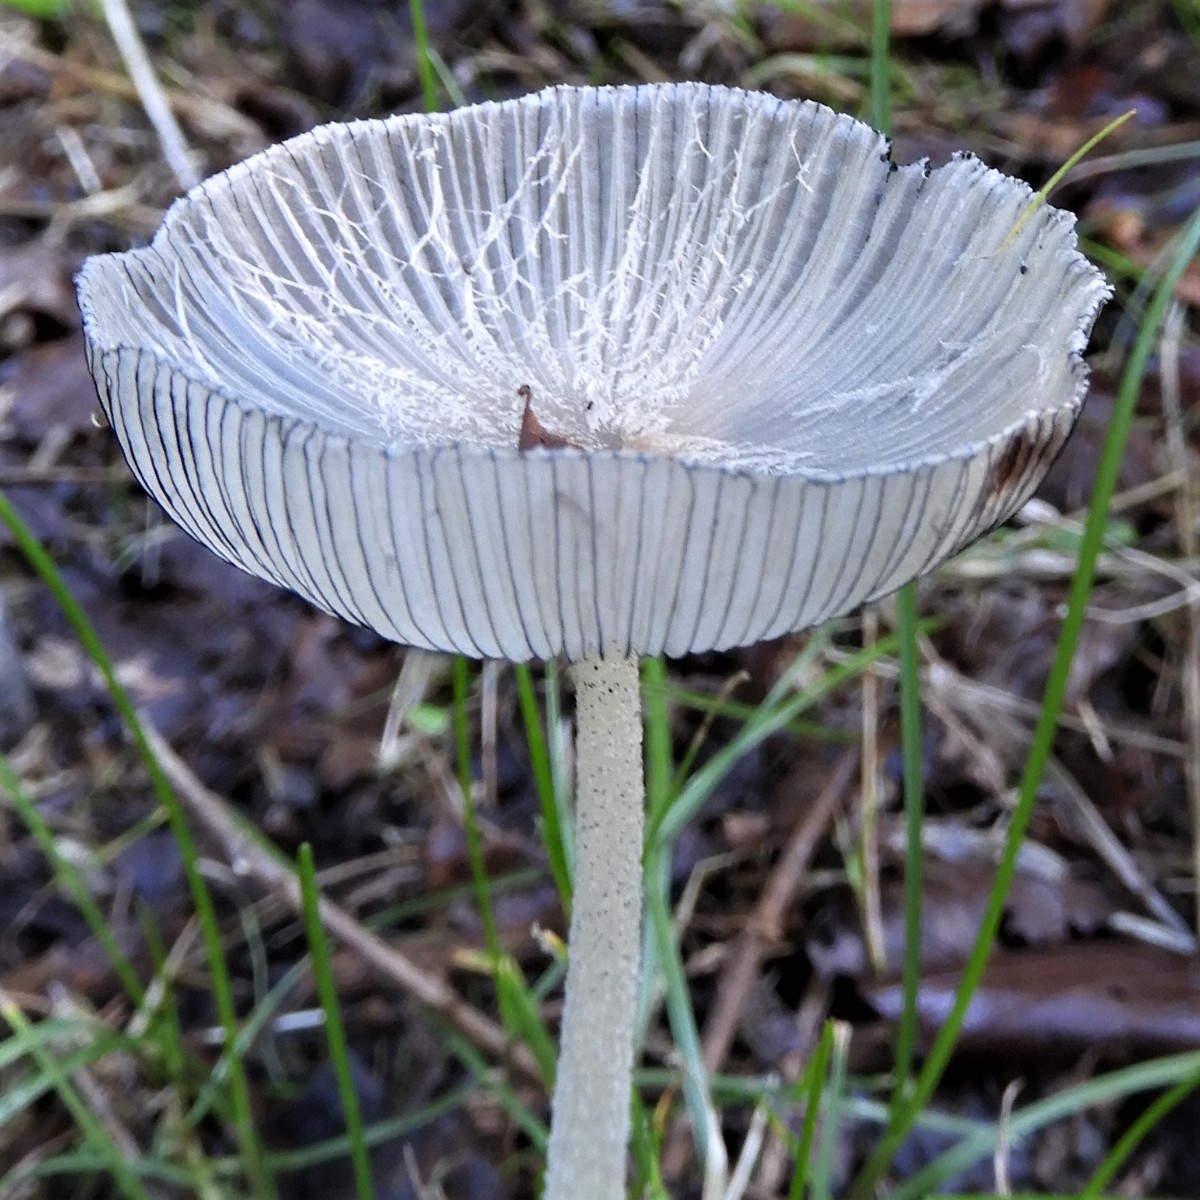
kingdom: Fungi
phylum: Basidiomycota
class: Agaricomycetes
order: Agaricales
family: Psathyrellaceae
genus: Coprinopsis
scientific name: Coprinopsis lagopus
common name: dunstokket blækhat
